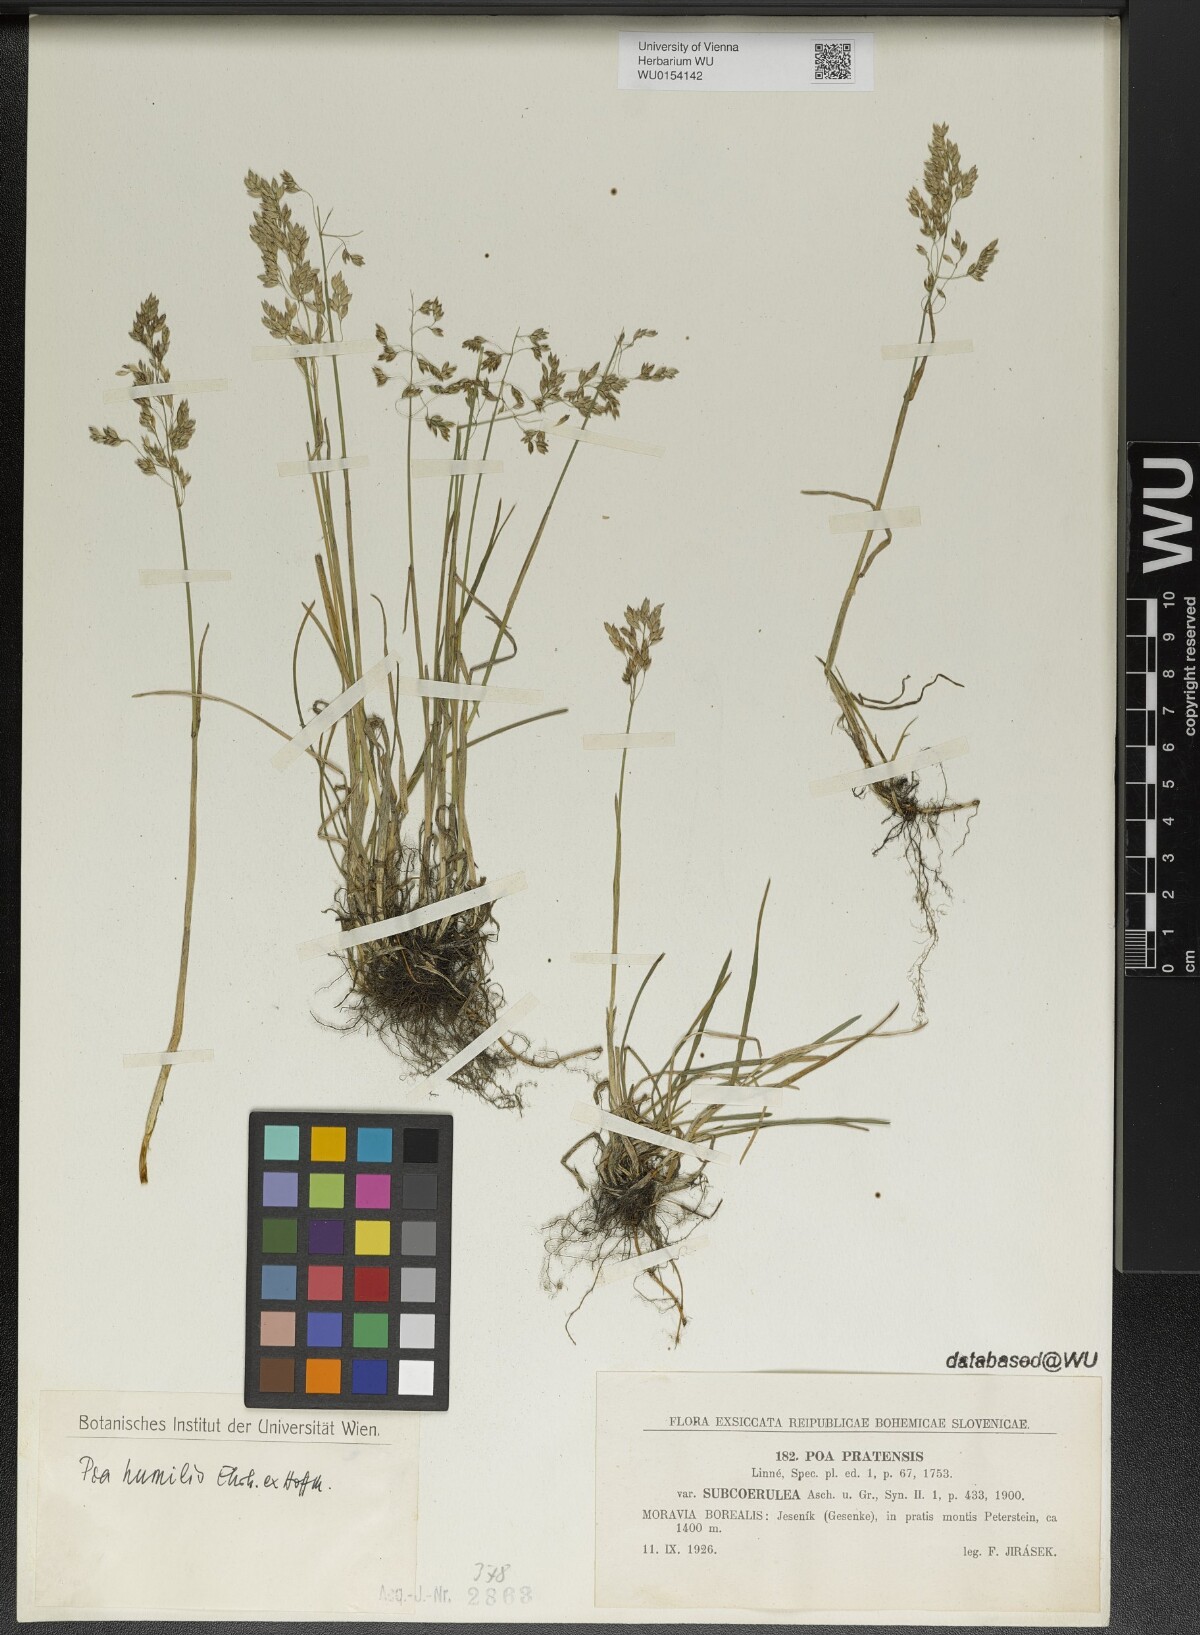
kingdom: Plantae
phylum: Tracheophyta
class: Liliopsida
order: Poales
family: Poaceae
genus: Poa
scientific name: Poa humilis
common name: Spreading meadow-grass
